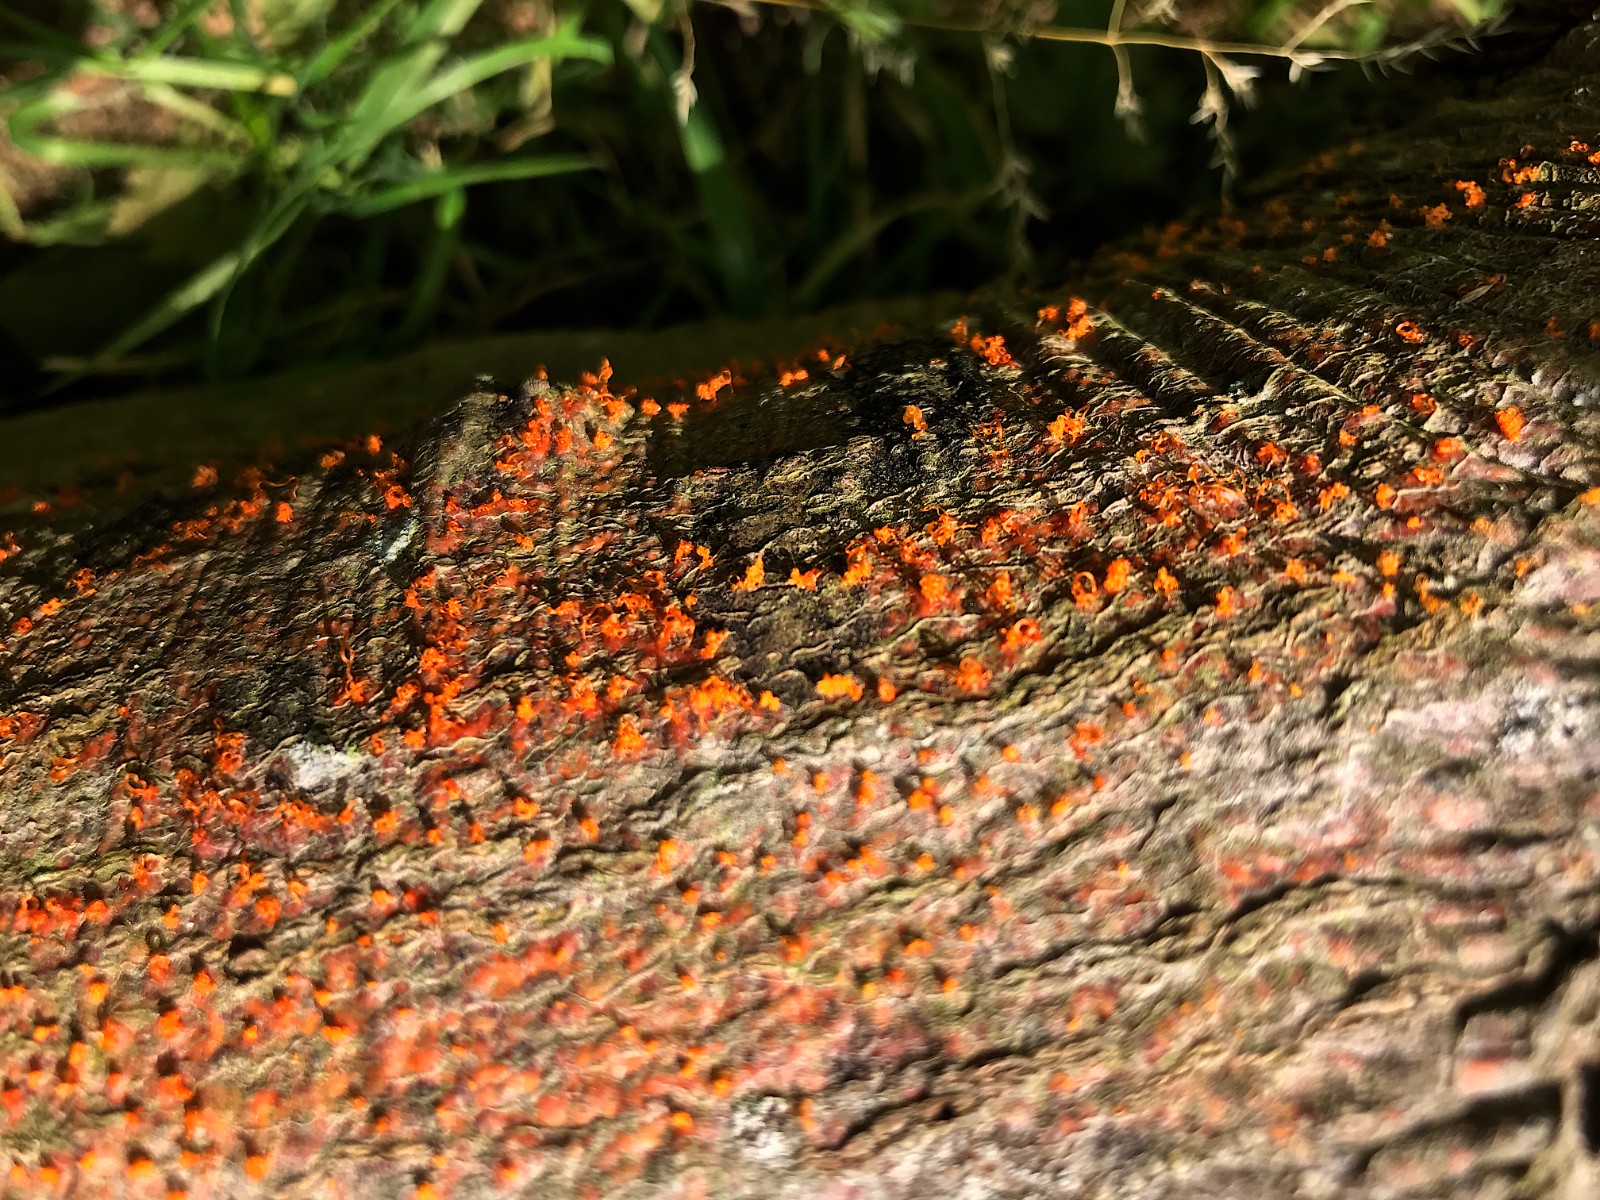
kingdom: Fungi
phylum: Ascomycota
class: Sordariomycetes
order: Xylariales
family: Diatrypaceae
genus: Eutypella
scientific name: Eutypella quaternata
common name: bøge-korsprik
